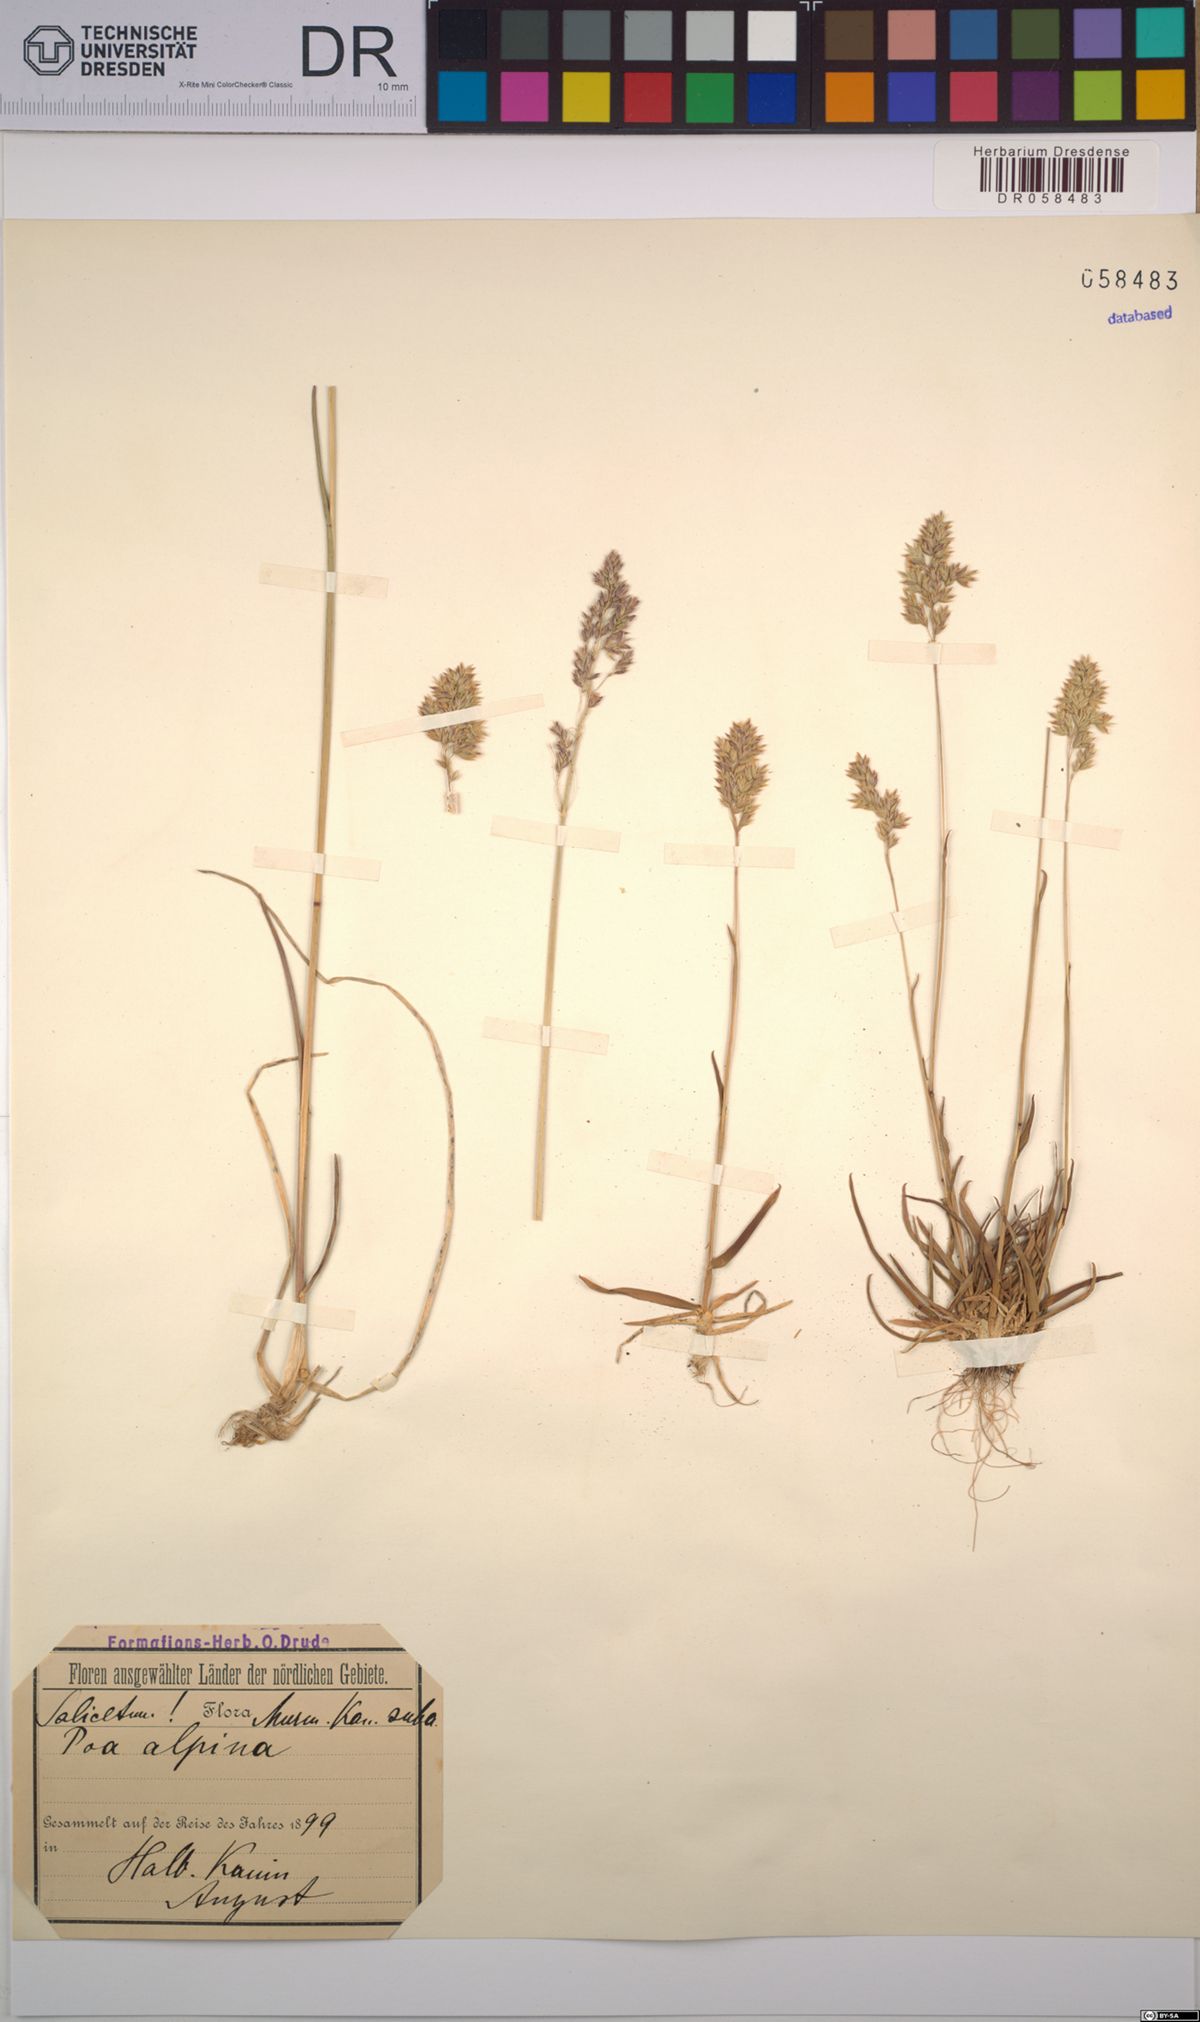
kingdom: Plantae
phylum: Tracheophyta
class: Liliopsida
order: Poales
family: Poaceae
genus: Poa
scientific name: Poa alpina
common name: Alpine bluegrass
